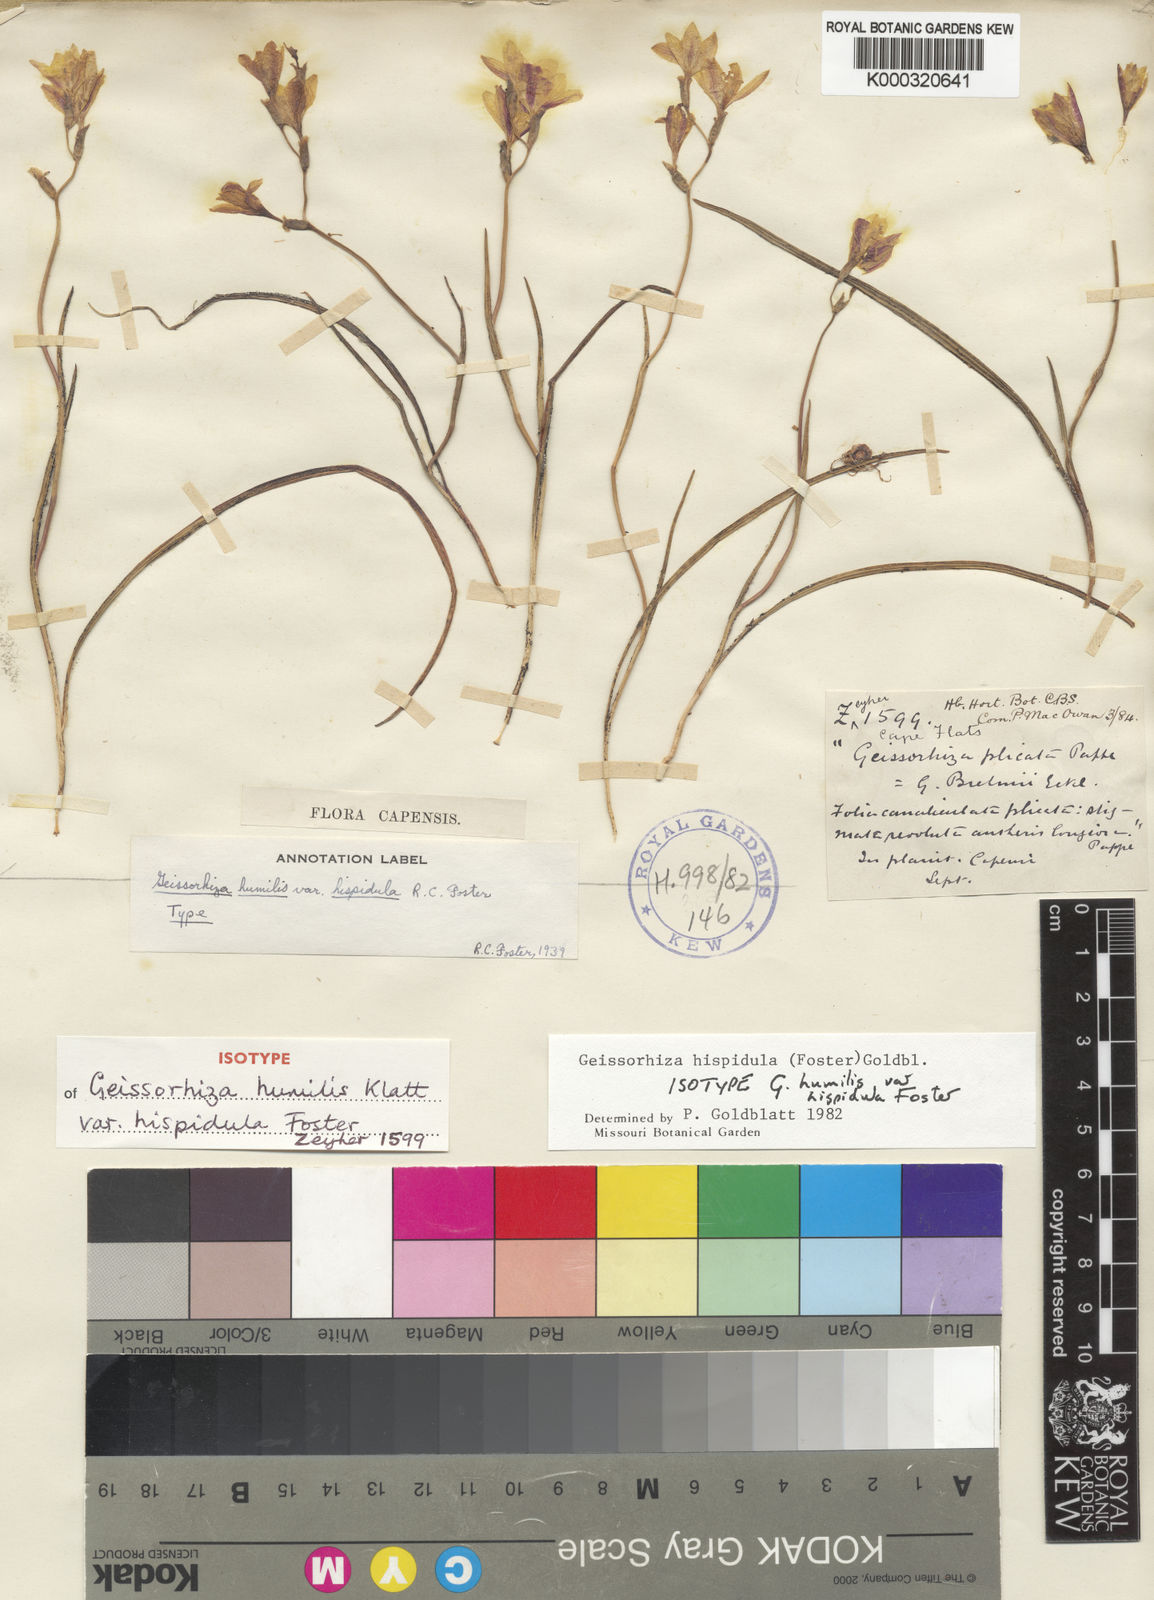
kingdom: Plantae
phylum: Tracheophyta
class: Liliopsida
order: Asparagales
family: Iridaceae
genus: Geissorhiza
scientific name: Geissorhiza hispidula
